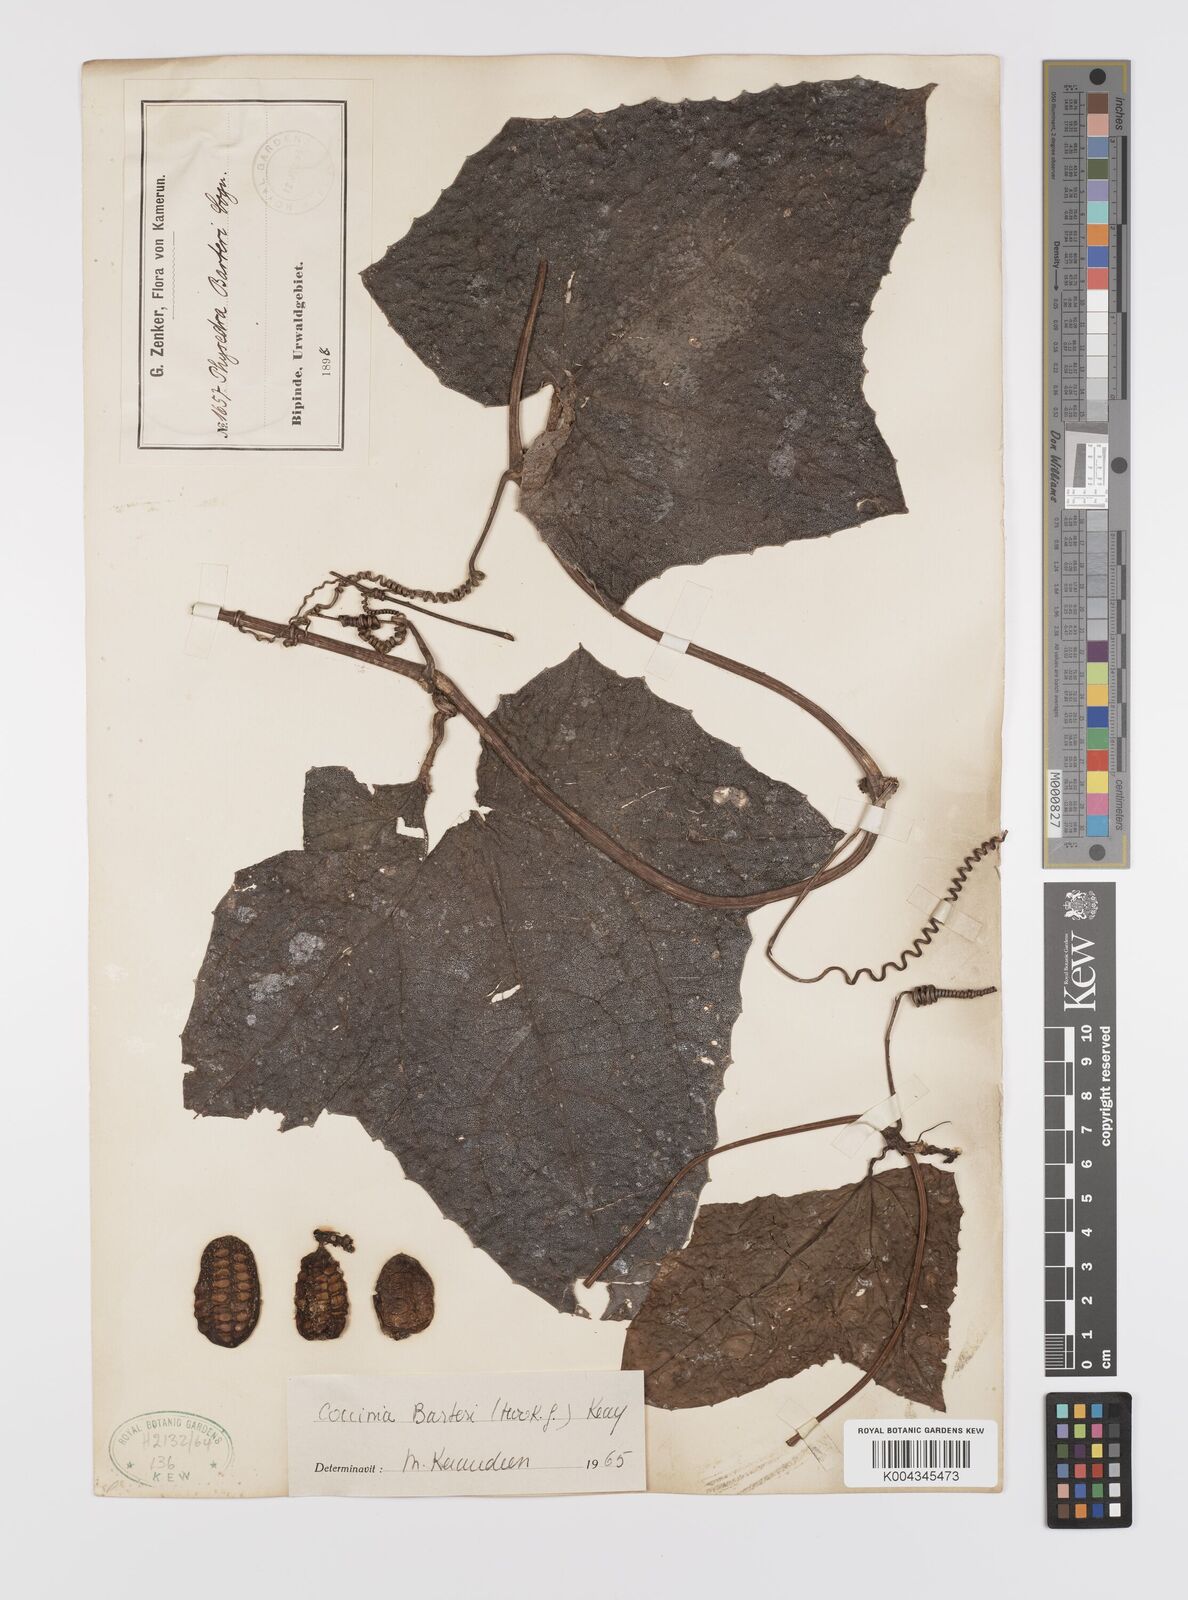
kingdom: Plantae
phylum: Tracheophyta
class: Magnoliopsida
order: Cucurbitales
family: Cucurbitaceae
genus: Coccinia
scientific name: Coccinia barteri
